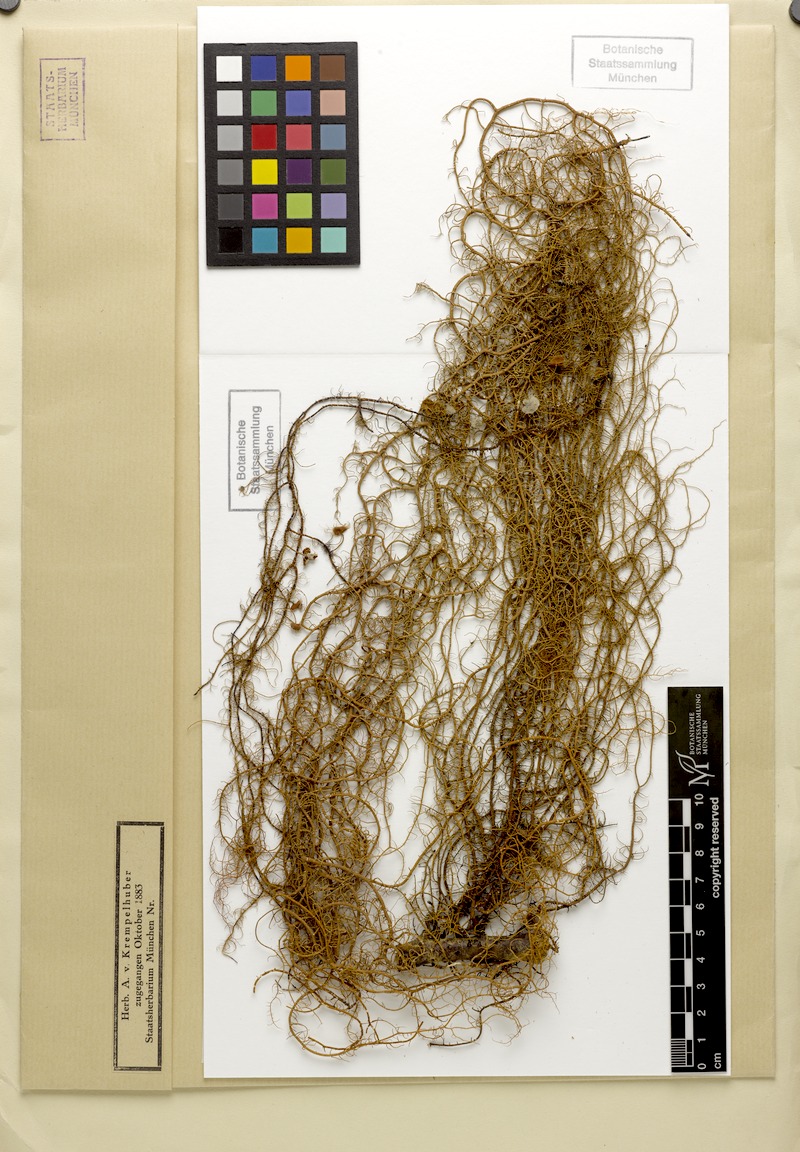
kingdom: Fungi
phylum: Ascomycota
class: Lecanoromycetes
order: Lecanorales
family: Parmeliaceae
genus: Usnea
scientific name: Usnea ceratina
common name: Warty beard lichen
